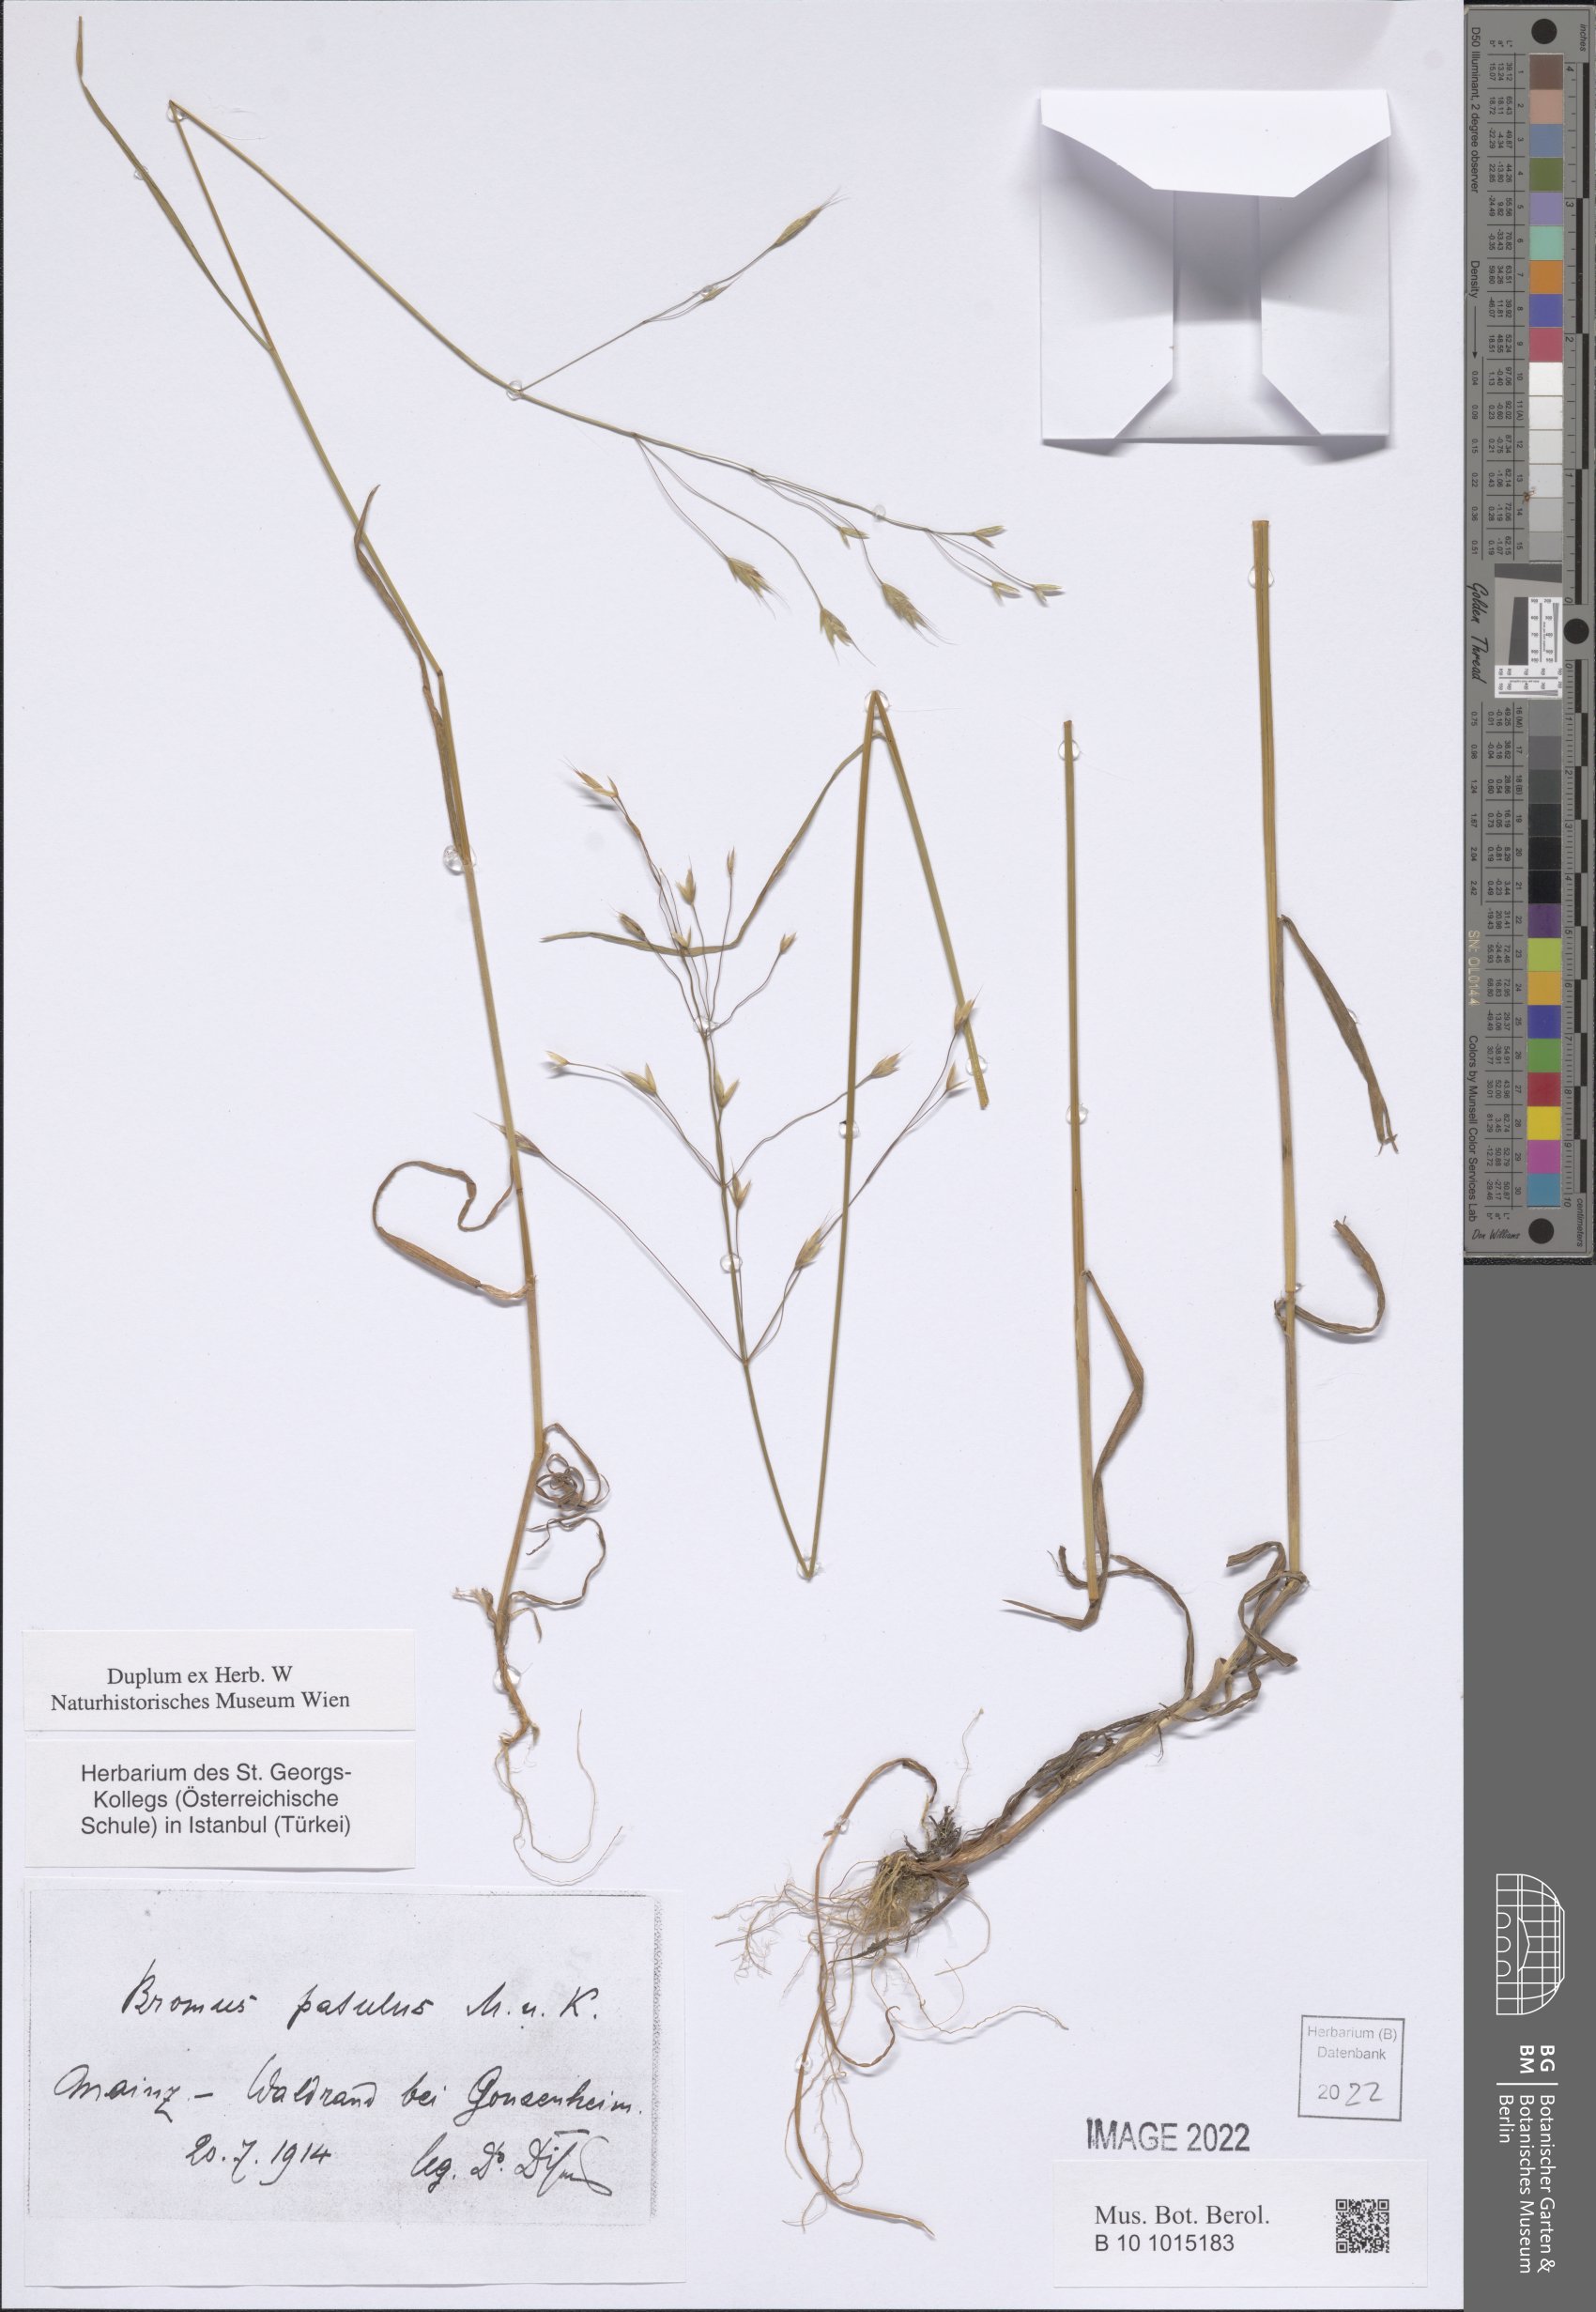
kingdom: Plantae
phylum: Tracheophyta
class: Liliopsida
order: Poales
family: Poaceae
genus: Bromus
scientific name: Bromus japonicus
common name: Japanese brome
